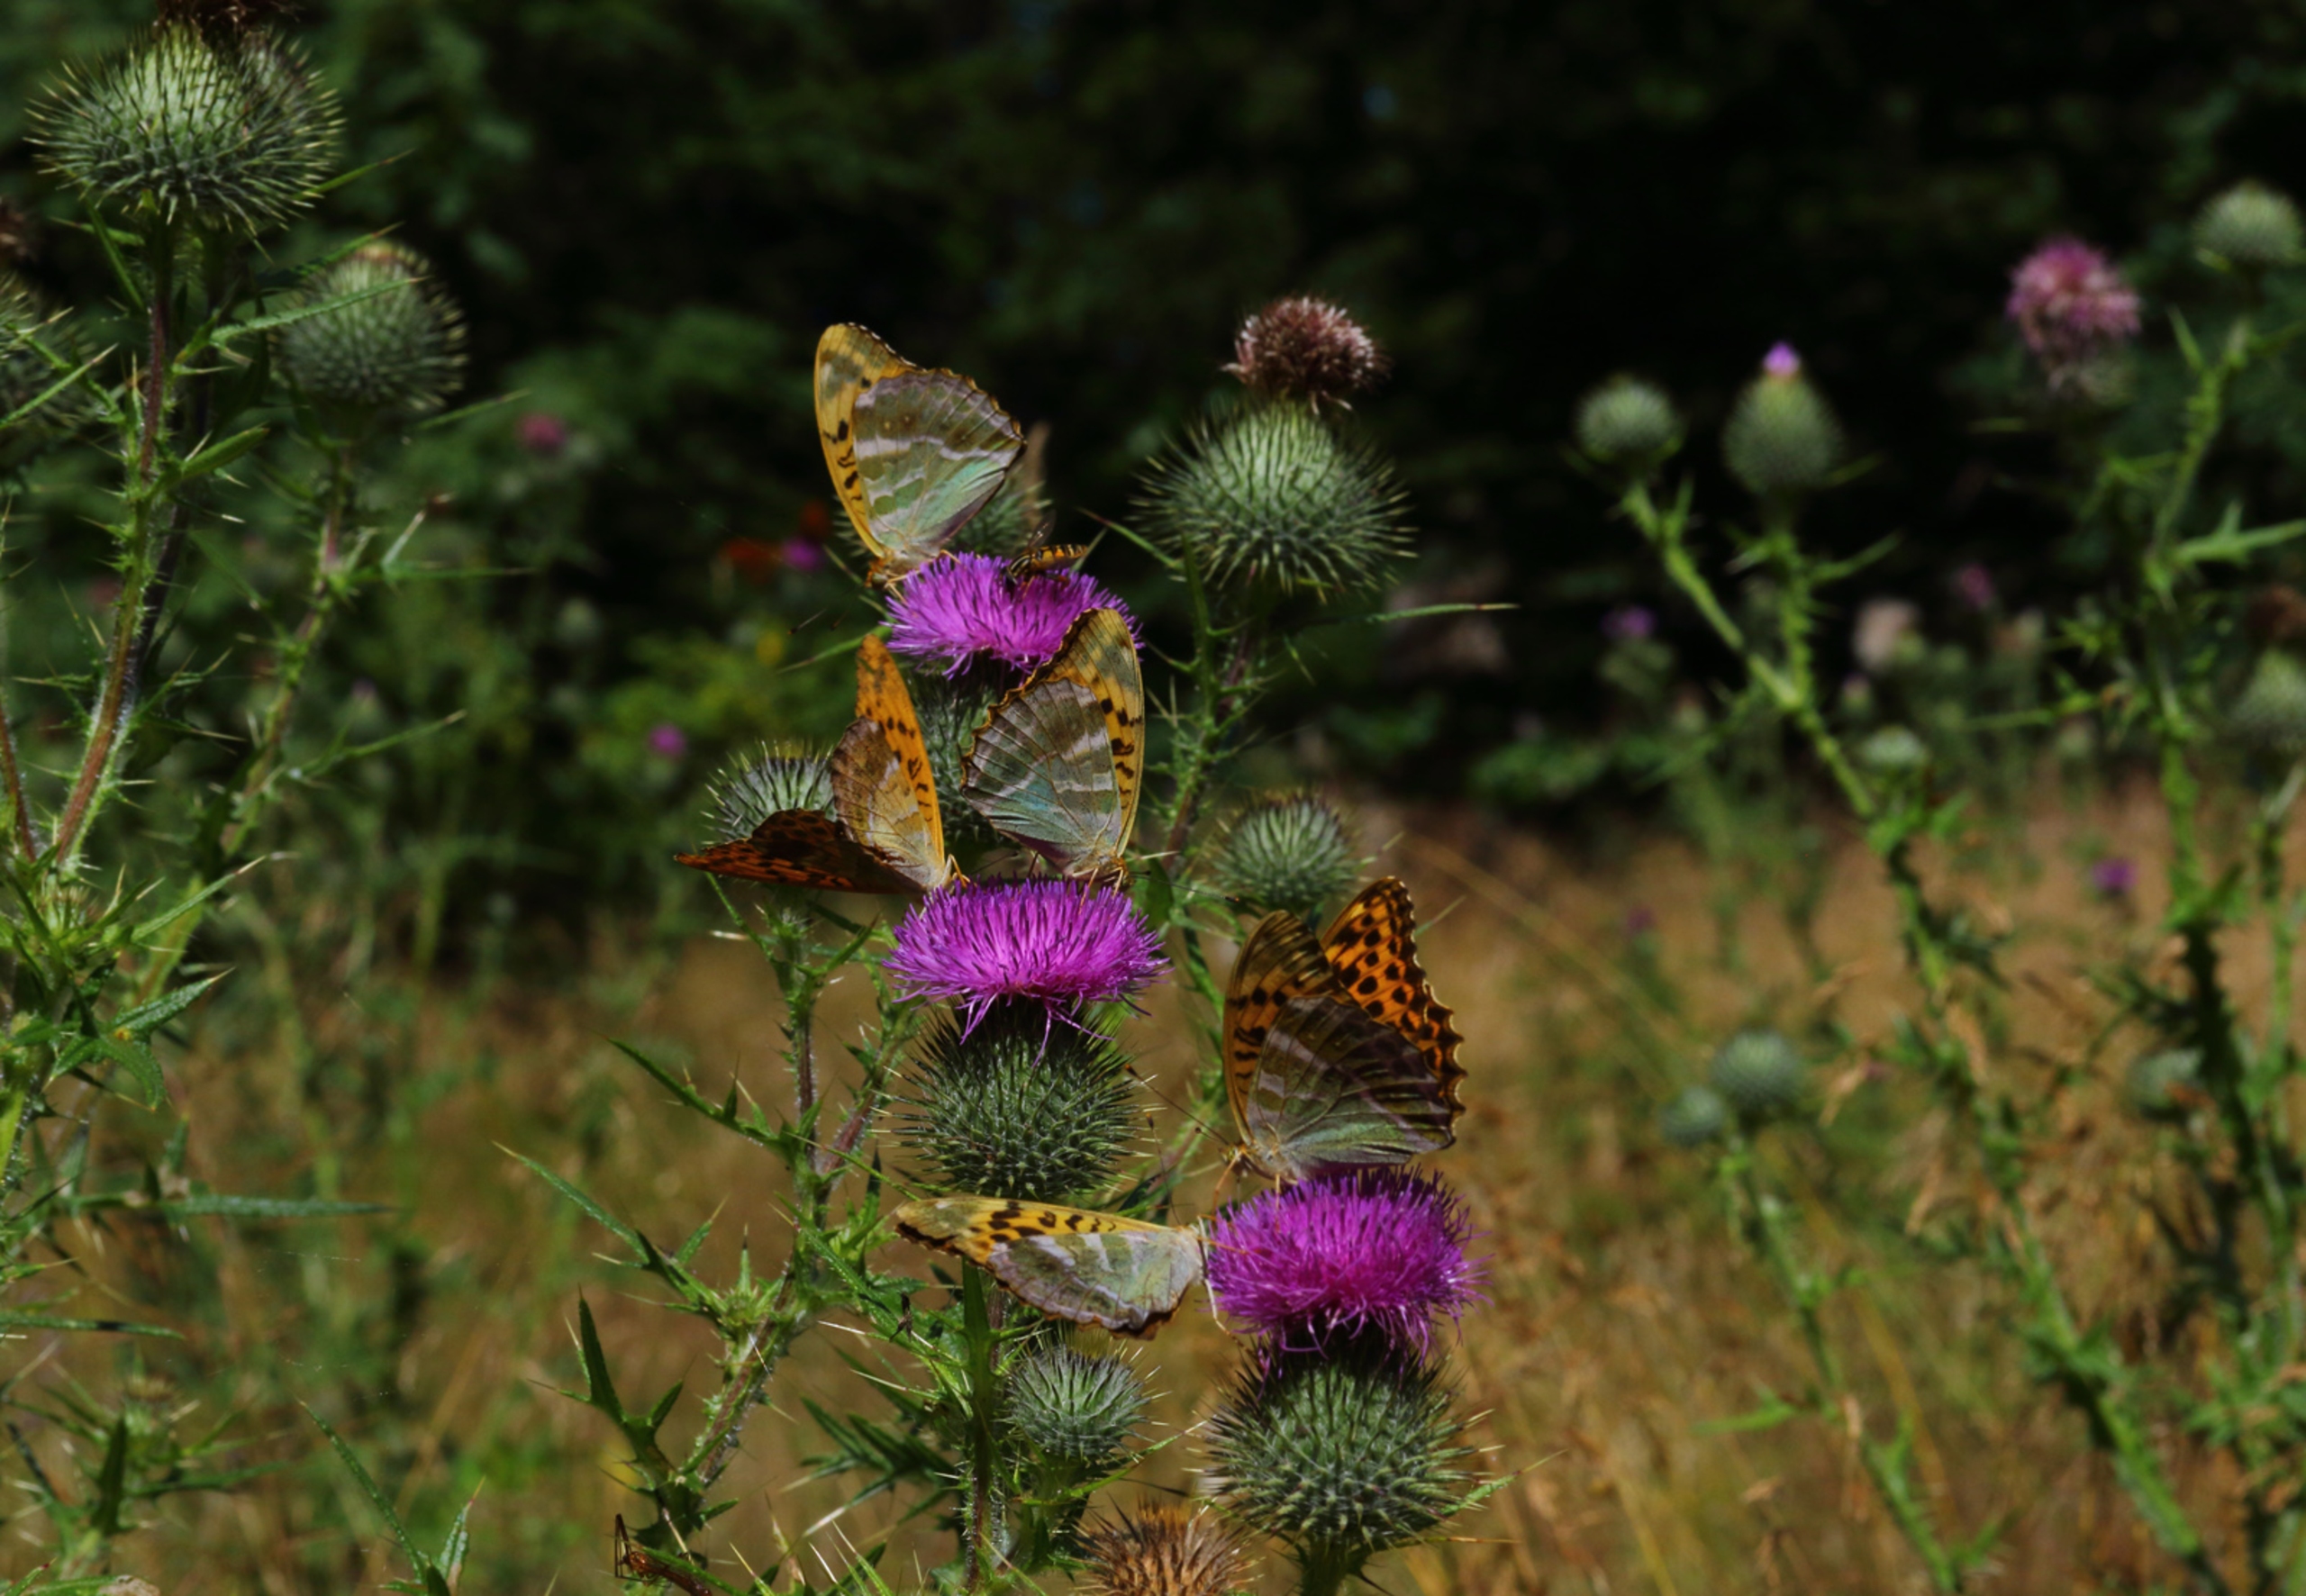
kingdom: Animalia
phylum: Arthropoda
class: Insecta
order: Lepidoptera
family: Nymphalidae
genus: Argynnis
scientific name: Argynnis paphia
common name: Kejserkåbe
